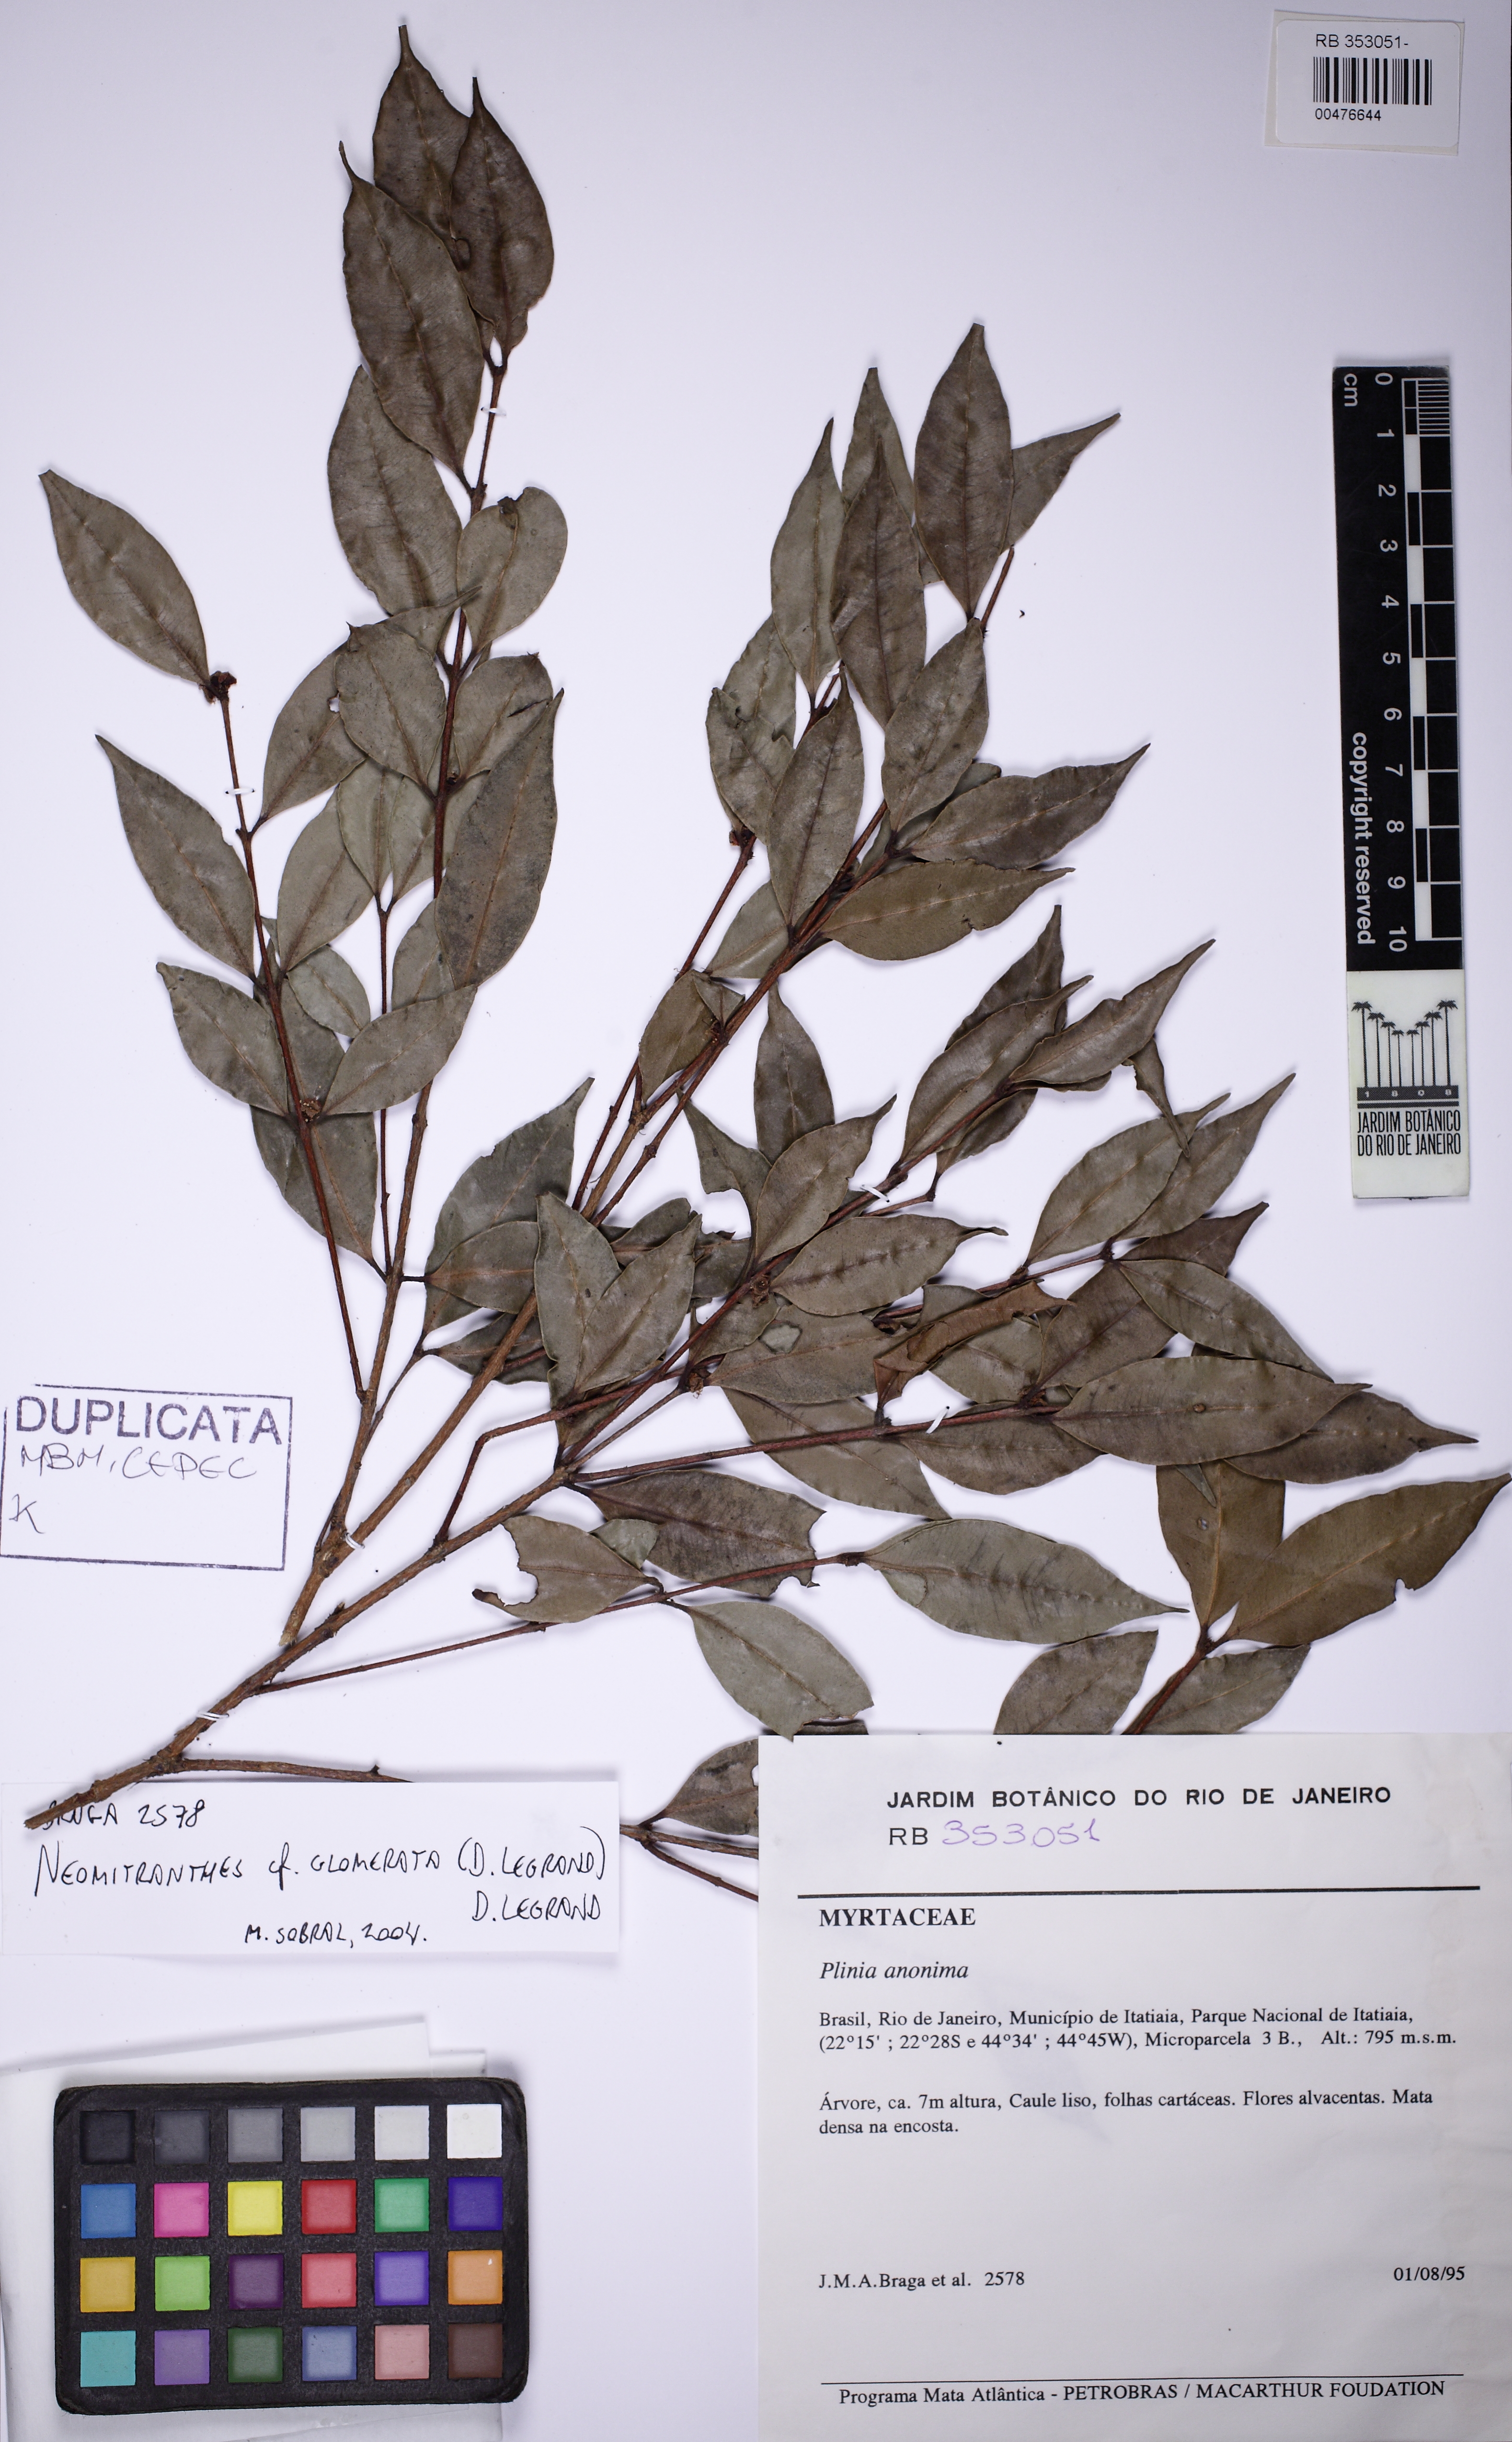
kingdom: Plantae
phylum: Tracheophyta
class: Magnoliopsida
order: Myrtales
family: Myrtaceae
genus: Neomitranthes
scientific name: Neomitranthes glomerata
